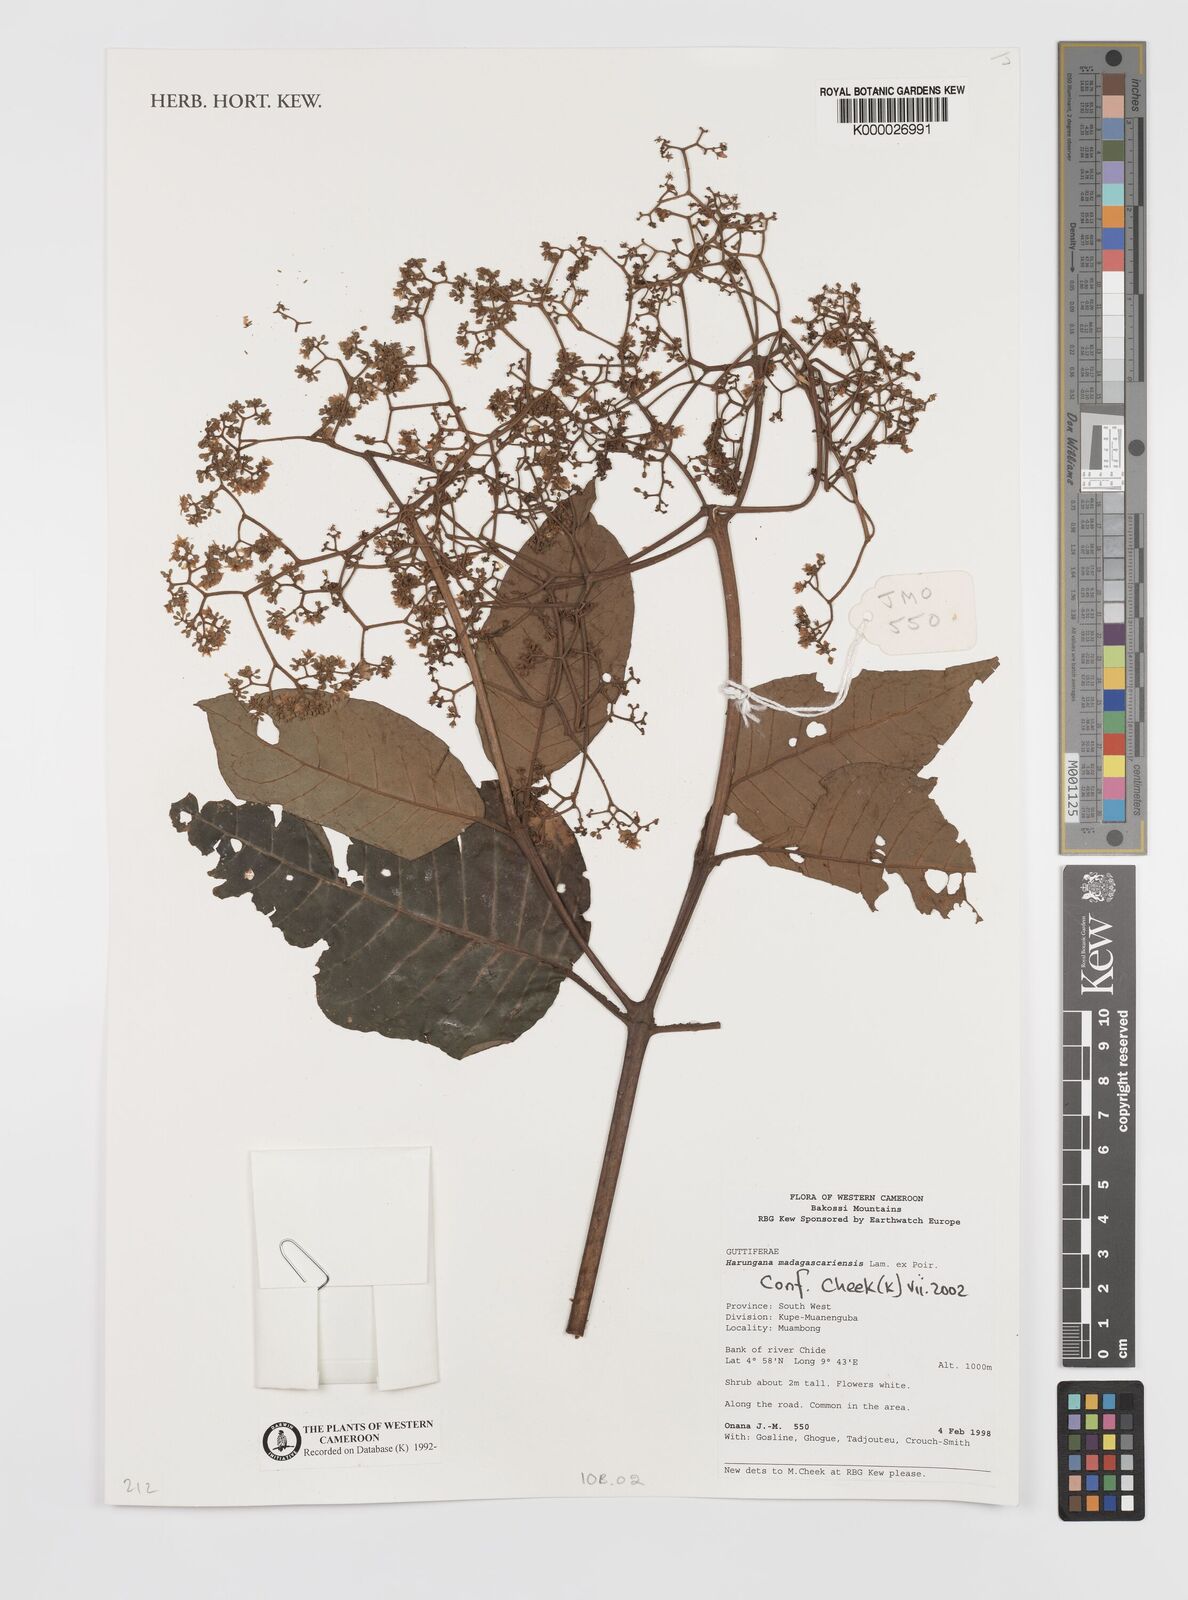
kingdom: Plantae
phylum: Tracheophyta
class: Magnoliopsida
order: Malpighiales
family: Hypericaceae
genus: Harungana
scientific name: Harungana madagascariensis
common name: Orange milktree
